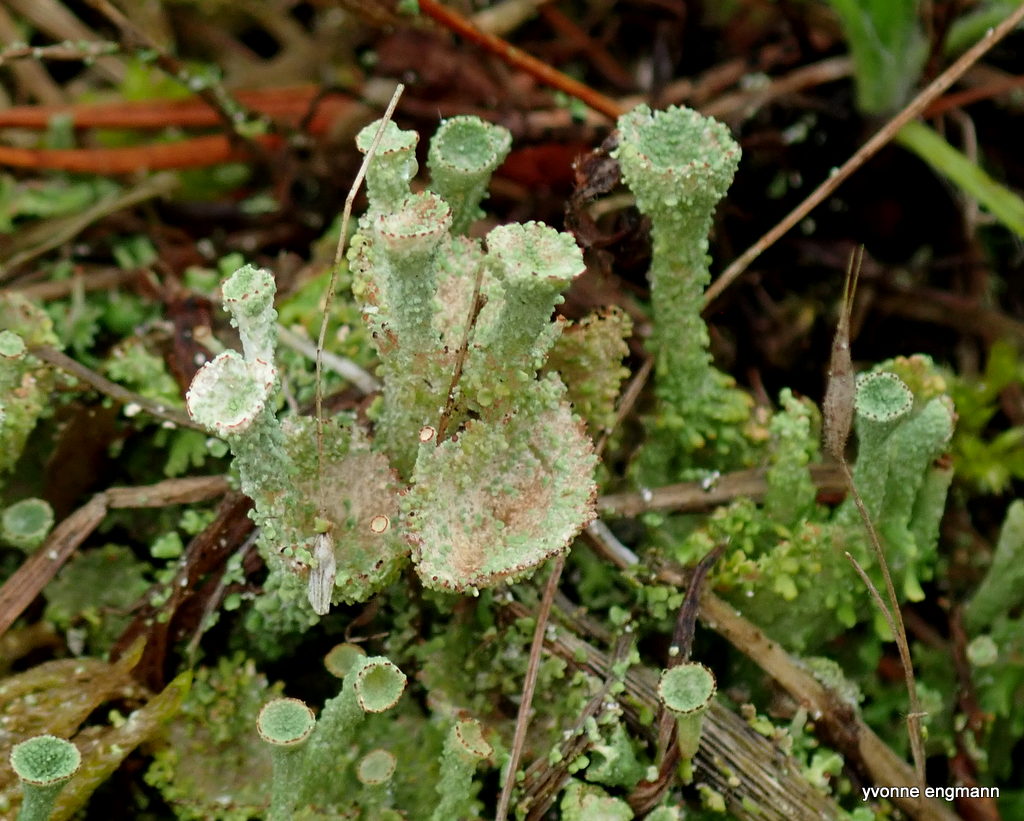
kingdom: Fungi
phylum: Ascomycota
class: Lecanoromycetes
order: Lecanorales
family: Cladoniaceae
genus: Cladonia
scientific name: Cladonia
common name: brungrøn bægerlav
